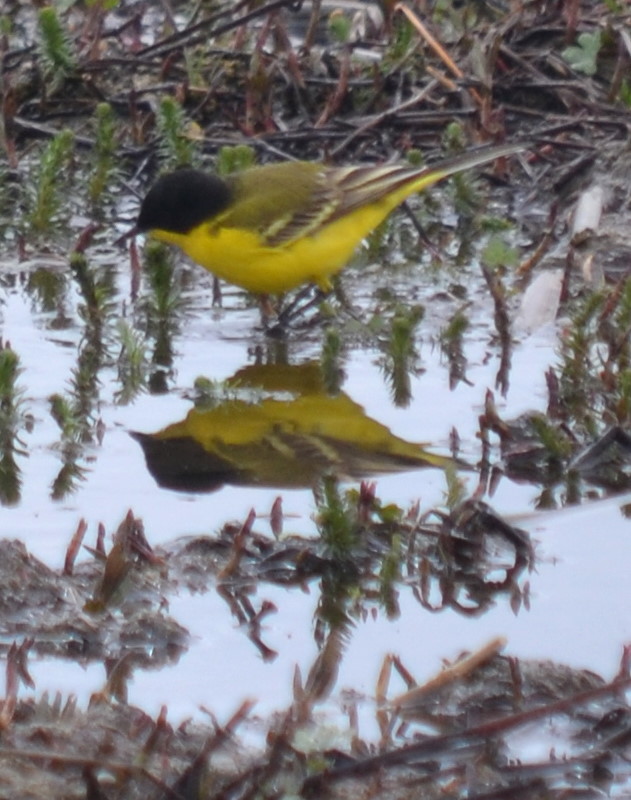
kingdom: Animalia
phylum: Chordata
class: Aves
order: Passeriformes
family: Motacillidae
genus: Motacilla
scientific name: Motacilla feldegg
